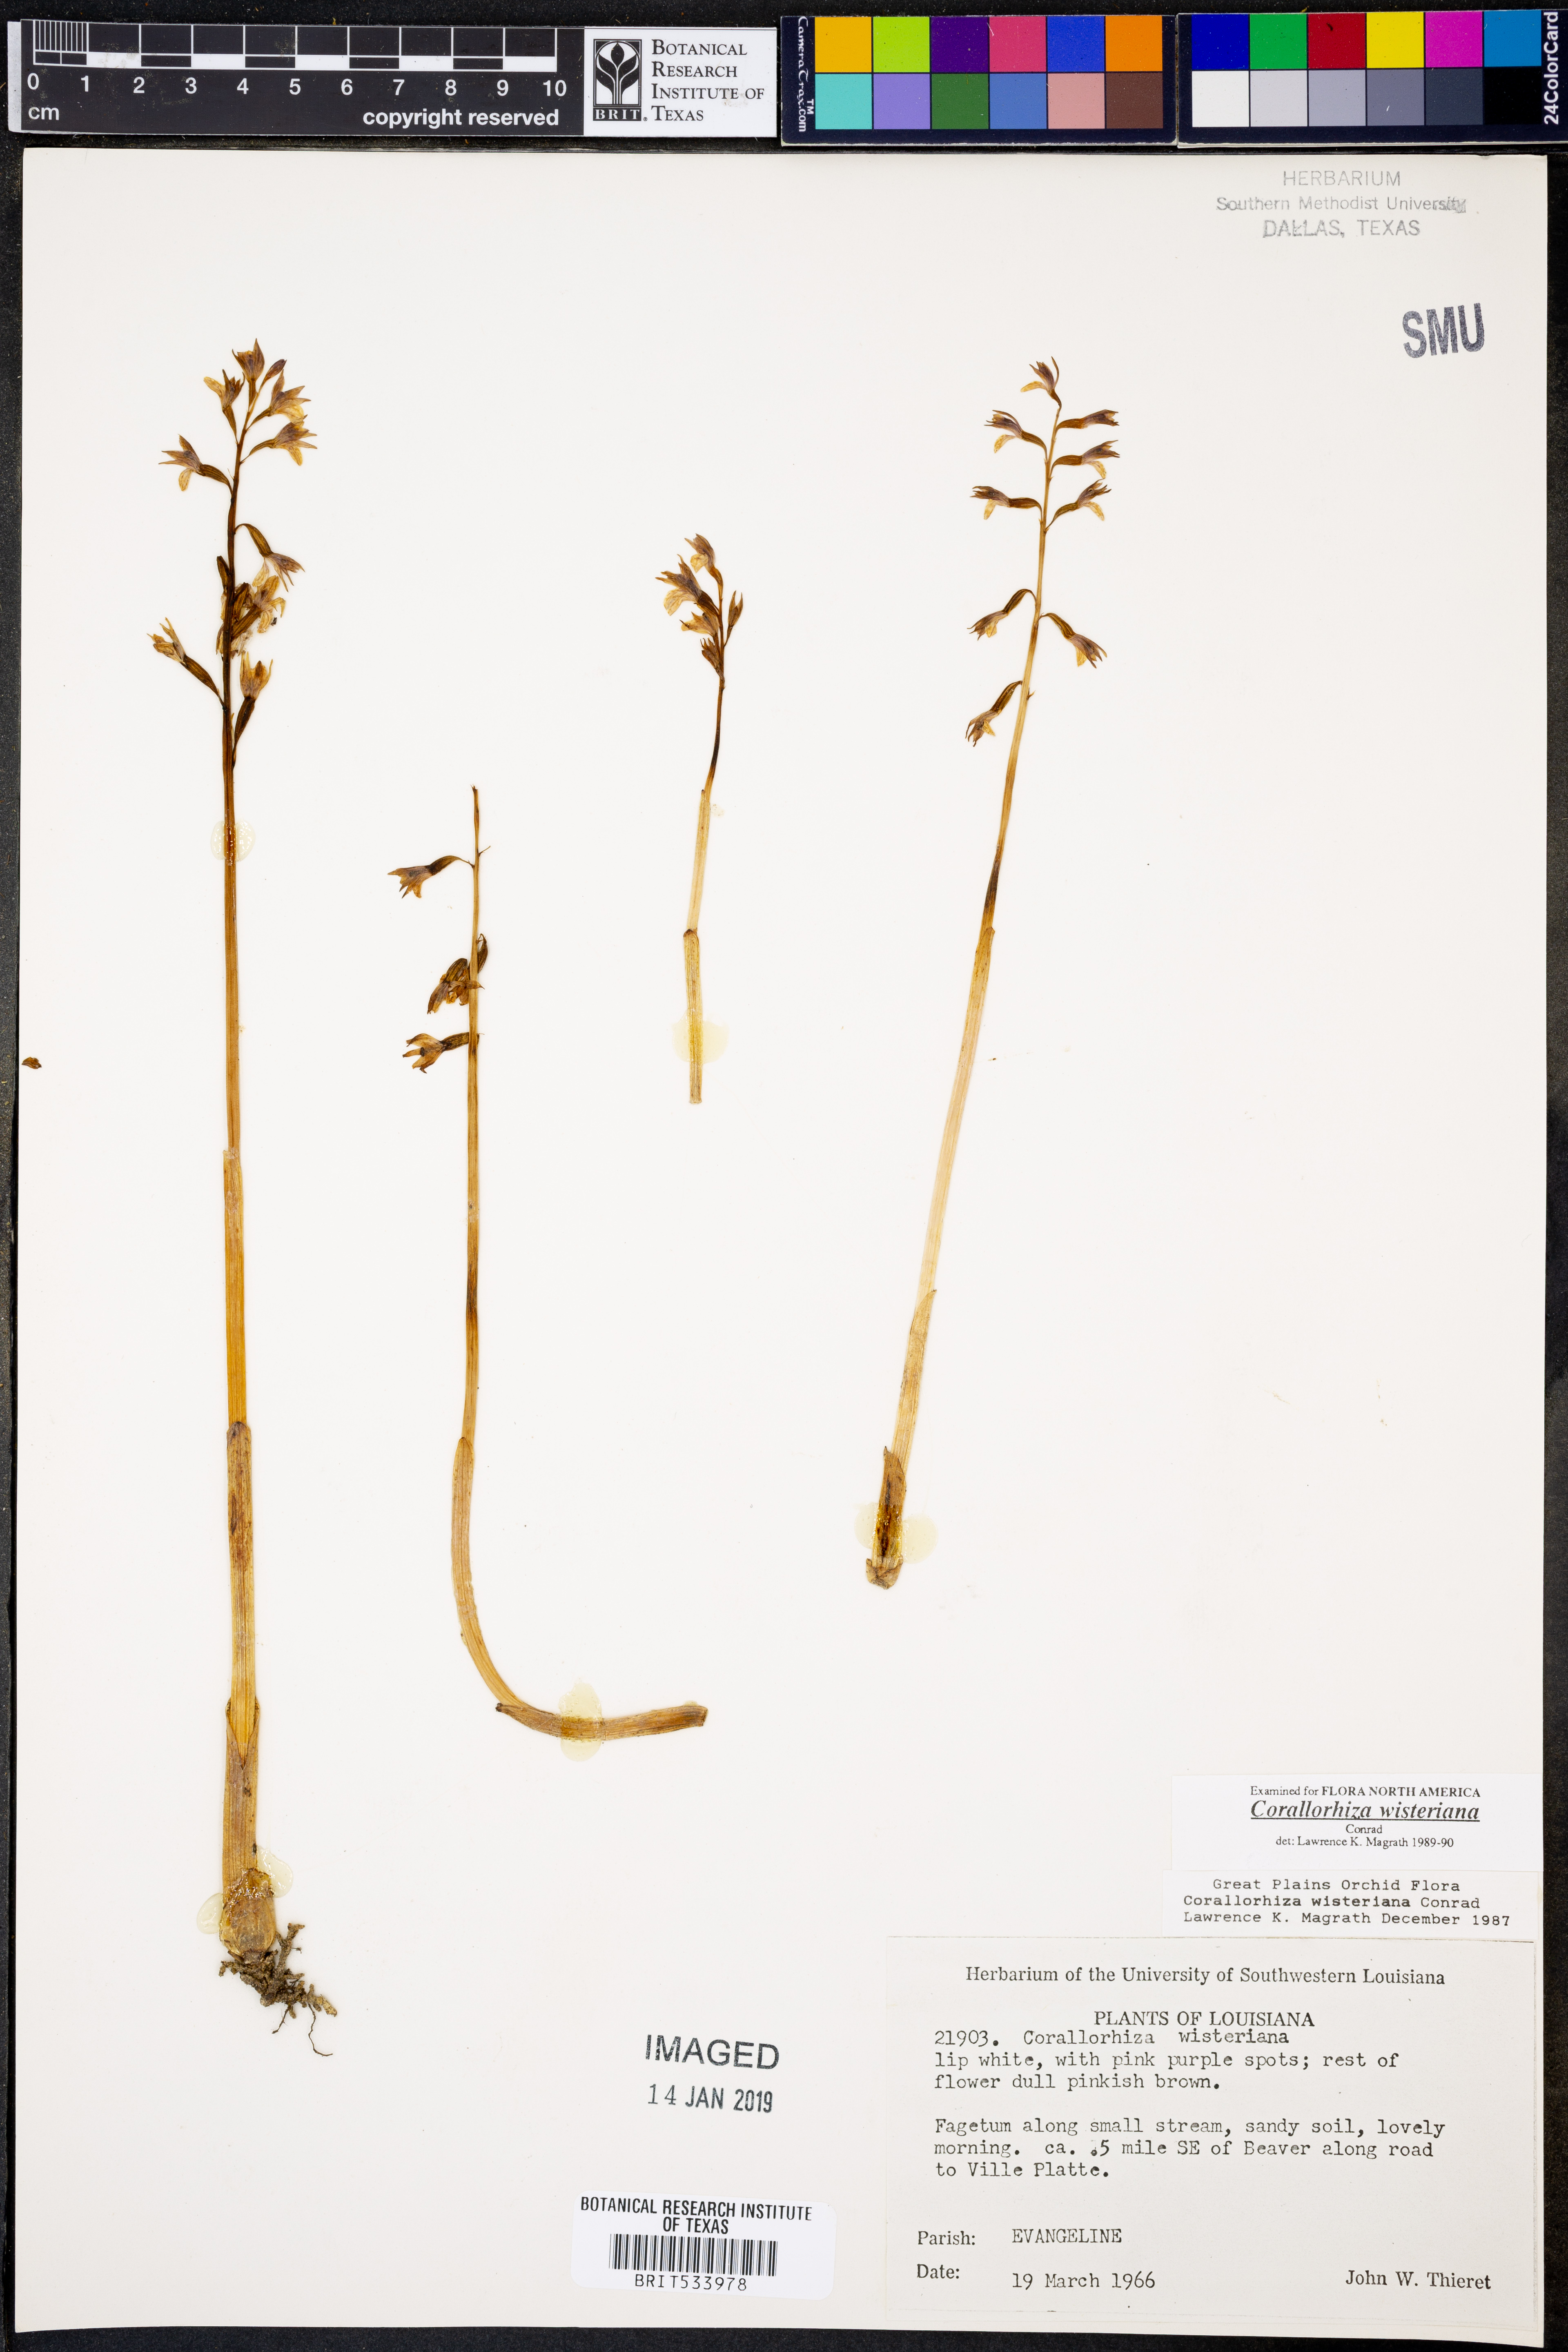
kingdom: Plantae
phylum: Tracheophyta
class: Liliopsida
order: Asparagales
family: Orchidaceae
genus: Corallorhiza
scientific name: Corallorhiza wisteriana
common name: Spring coralroot
